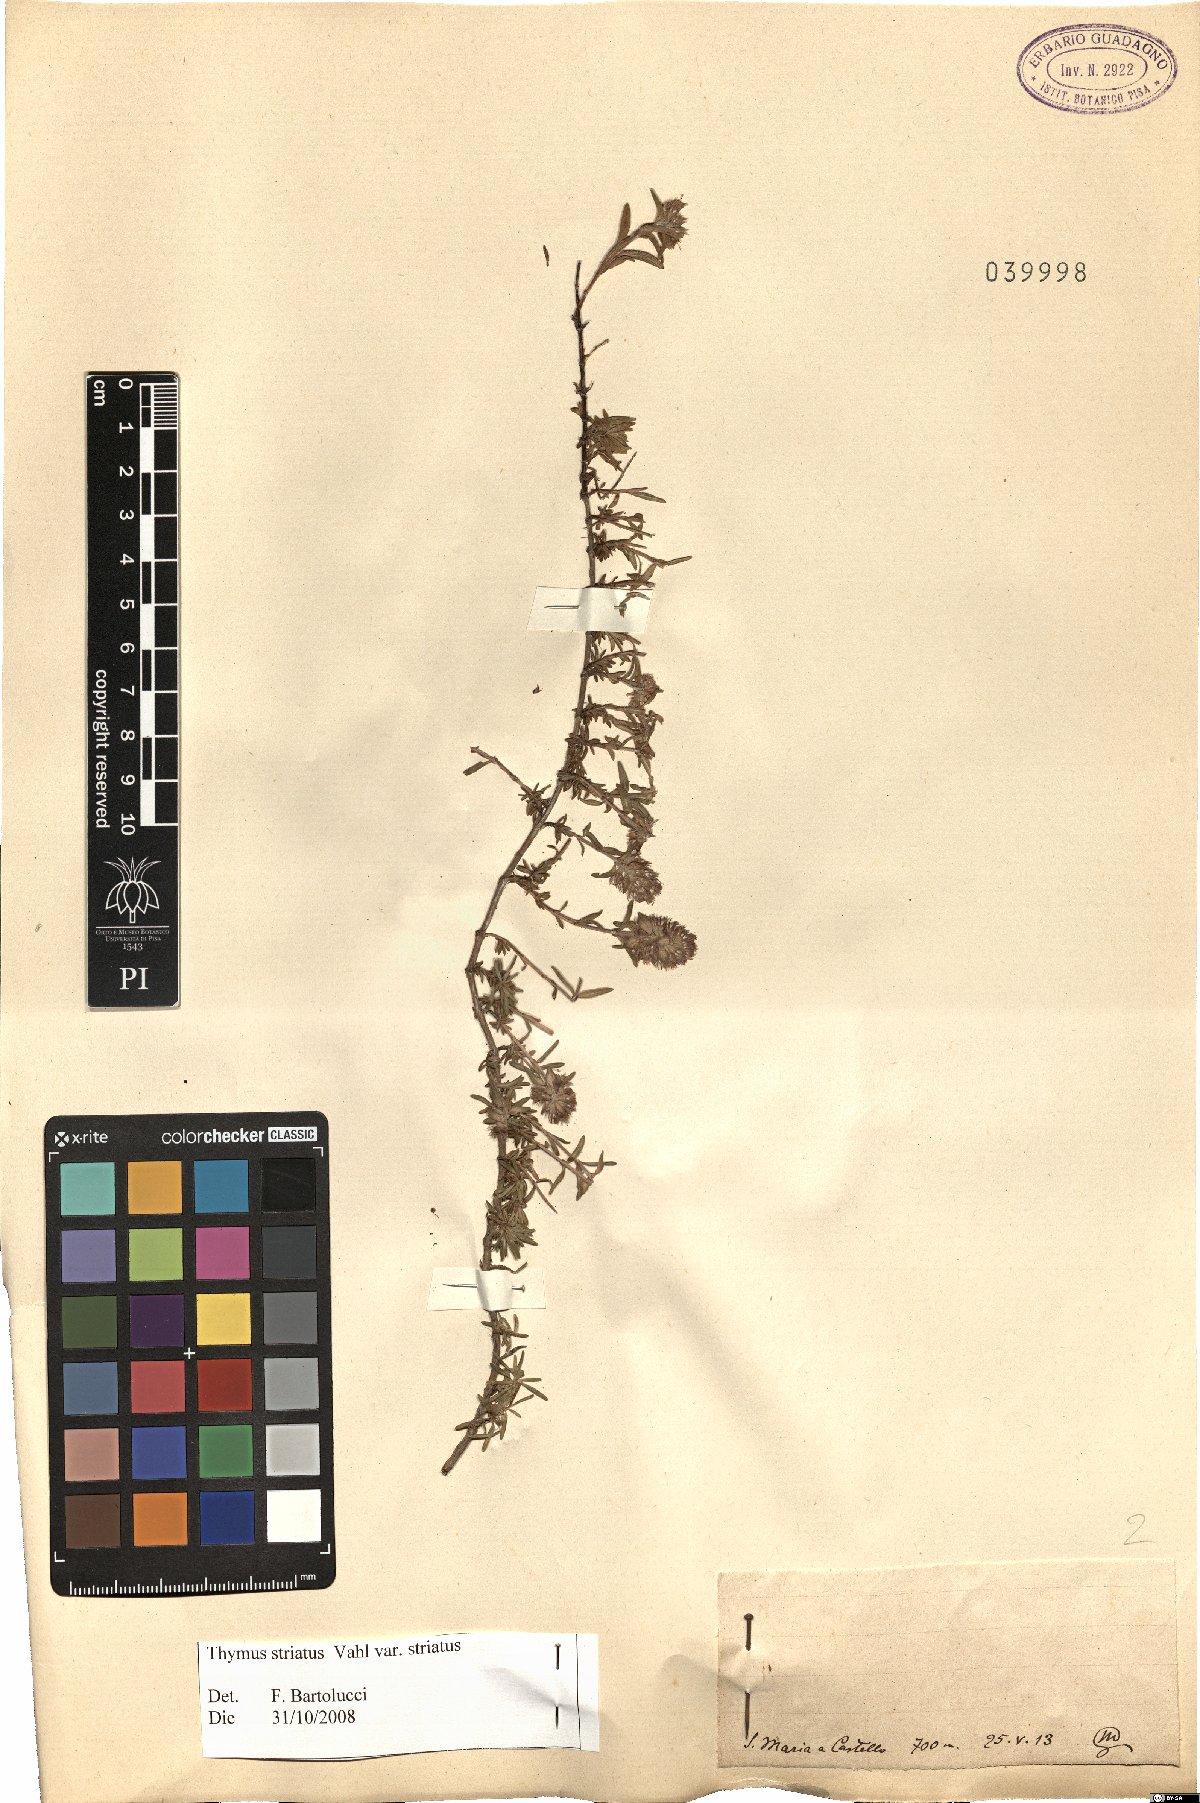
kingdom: Plantae
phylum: Tracheophyta
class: Magnoliopsida
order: Lamiales
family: Lamiaceae
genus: Thymus
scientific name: Thymus striatus
